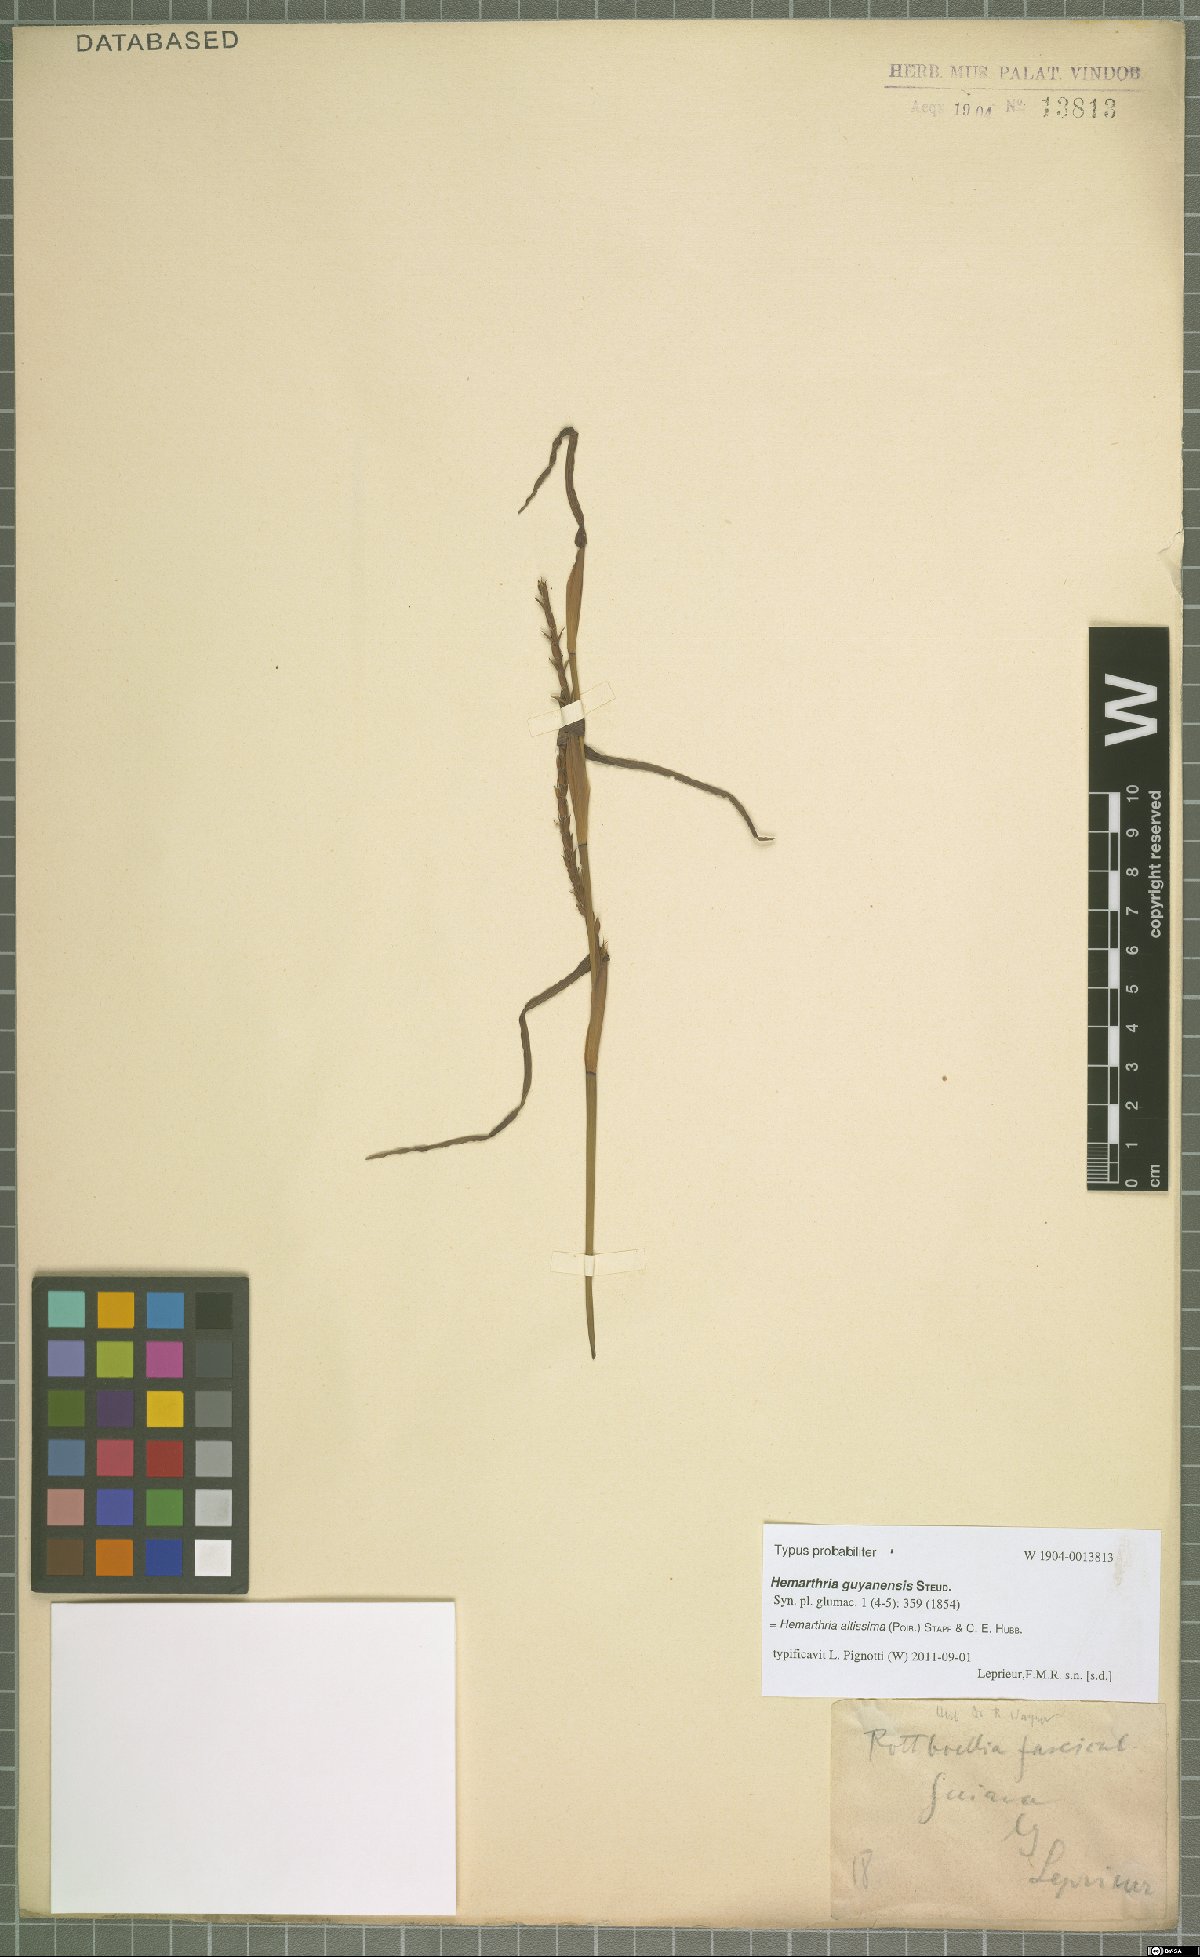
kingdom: Plantae
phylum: Tracheophyta
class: Liliopsida
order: Poales
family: Poaceae
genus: Hemarthria
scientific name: Hemarthria altissima
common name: African jointgrass
